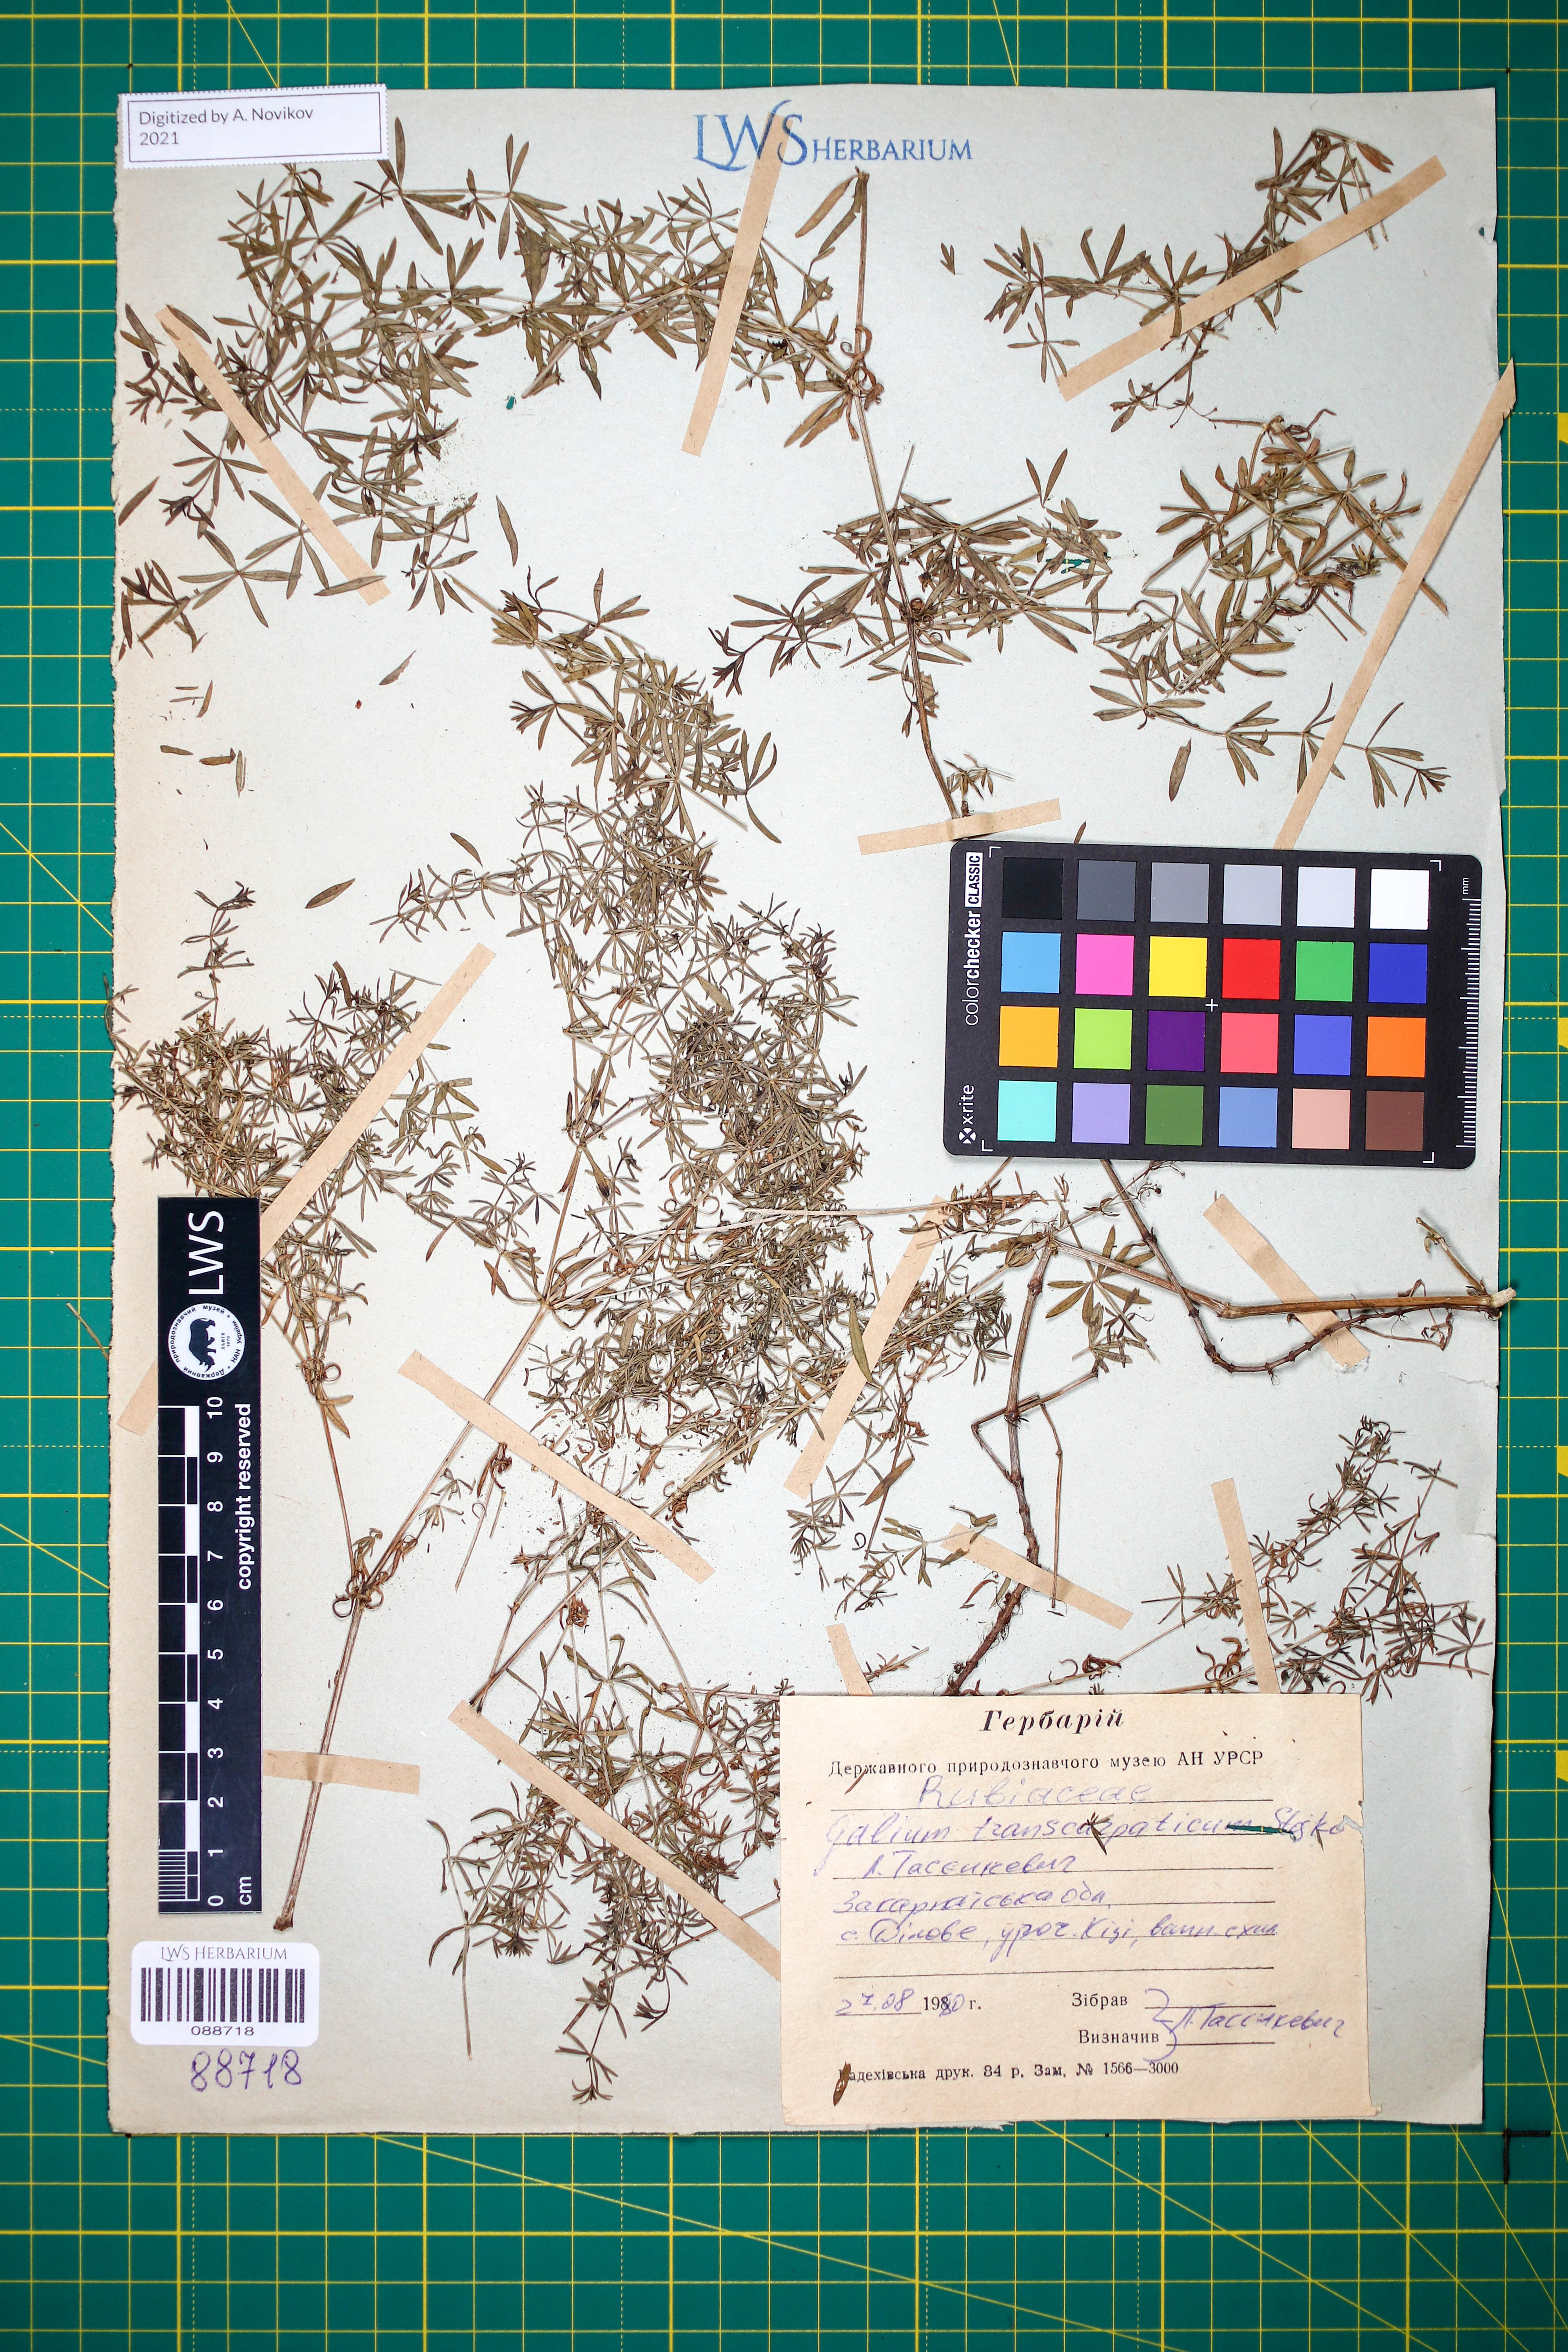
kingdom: Plantae
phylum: Tracheophyta
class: Magnoliopsida
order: Gentianales
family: Rubiaceae
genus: Galium
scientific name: Galium transcarpaticum
